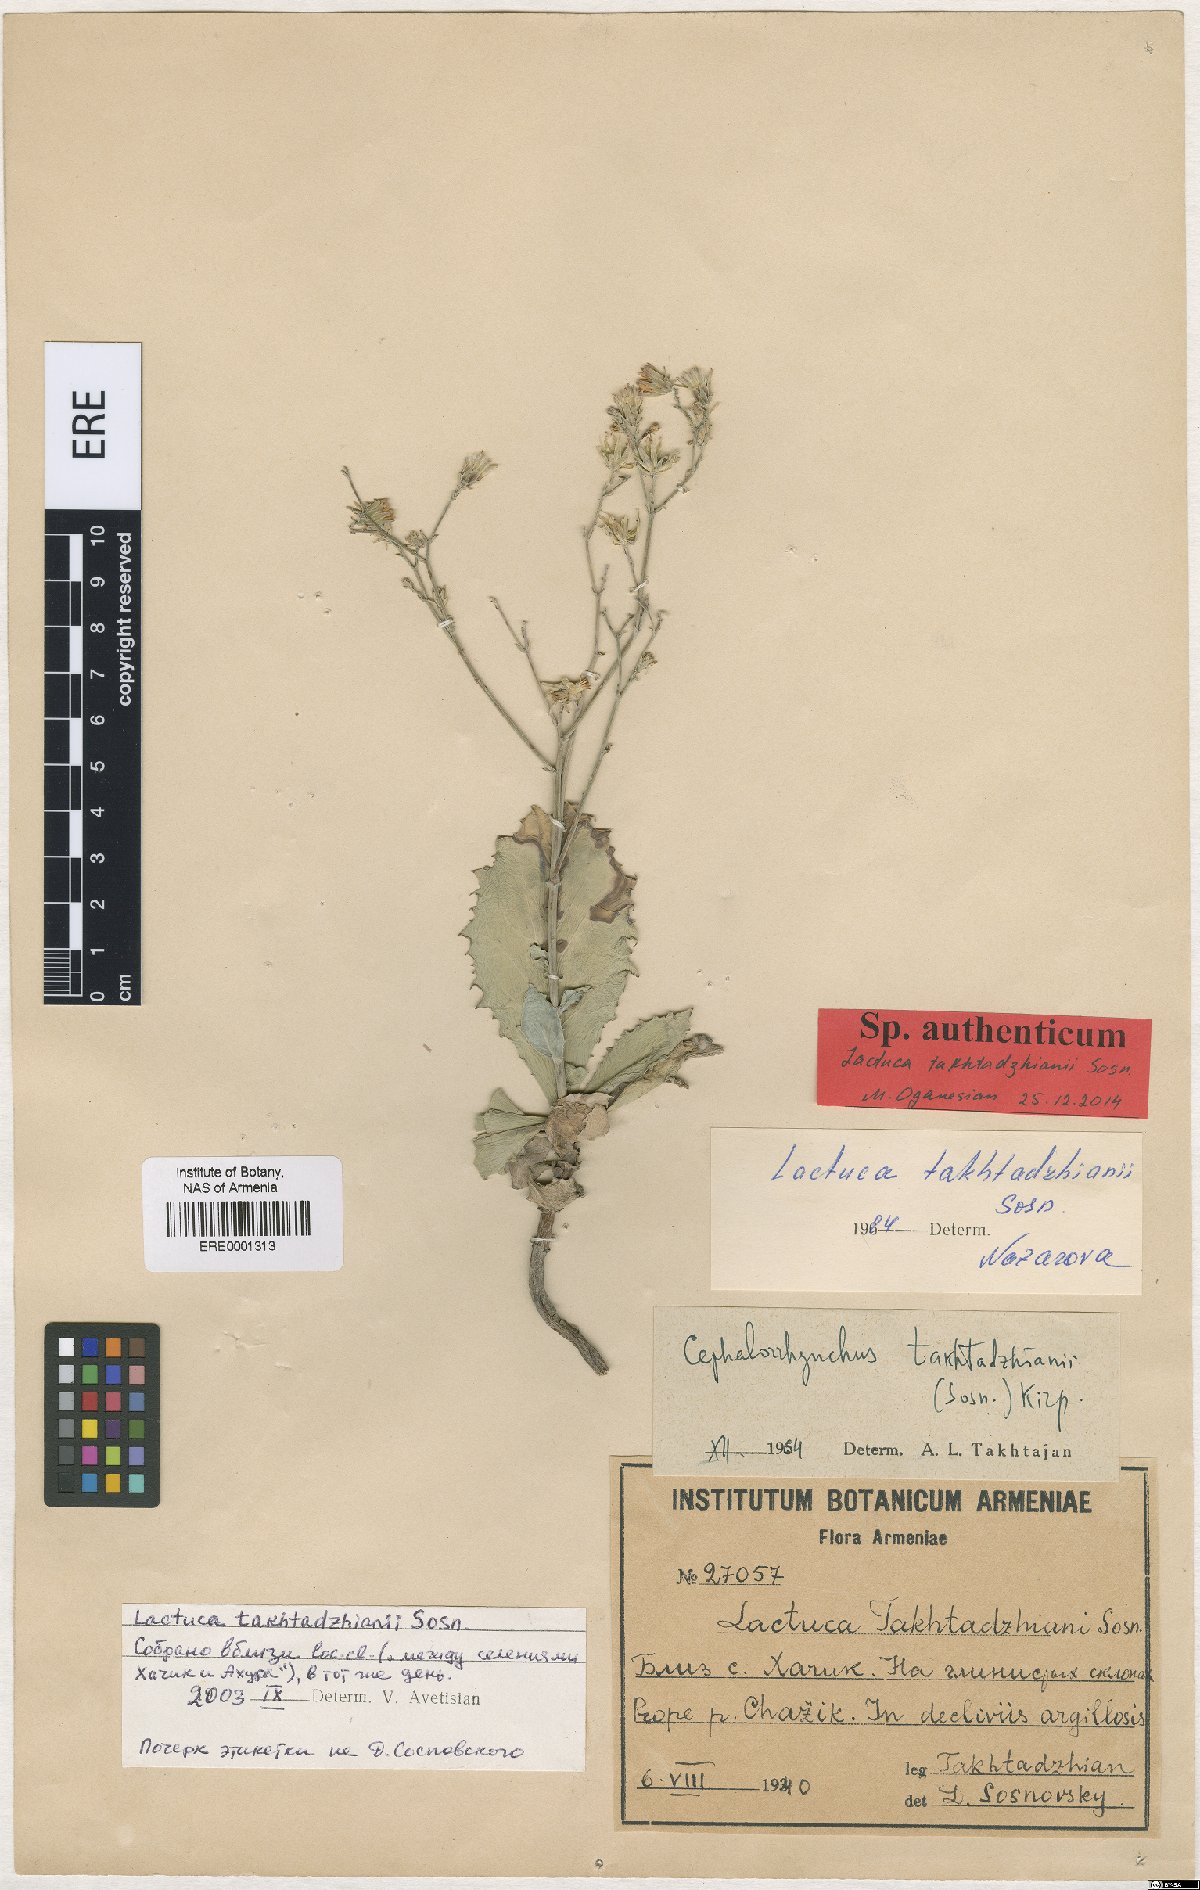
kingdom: Plantae
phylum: Tracheophyta
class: Magnoliopsida
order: Asterales
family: Asteraceae
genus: Lactuca
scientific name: Lactuca takhtadzhianii
